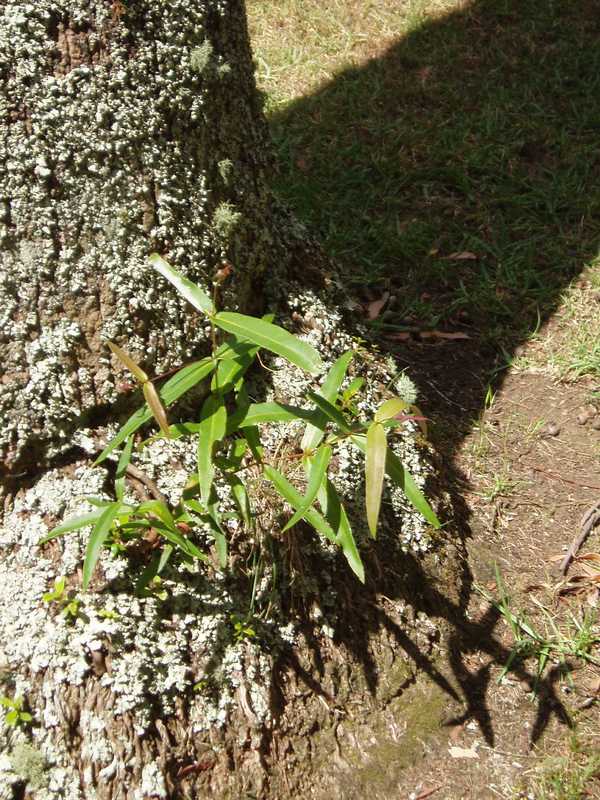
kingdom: Plantae
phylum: Tracheophyta
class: Magnoliopsida
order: Myrtales
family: Myrtaceae
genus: Eucalyptus
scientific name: Eucalyptus pilularis
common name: Blackbutt
